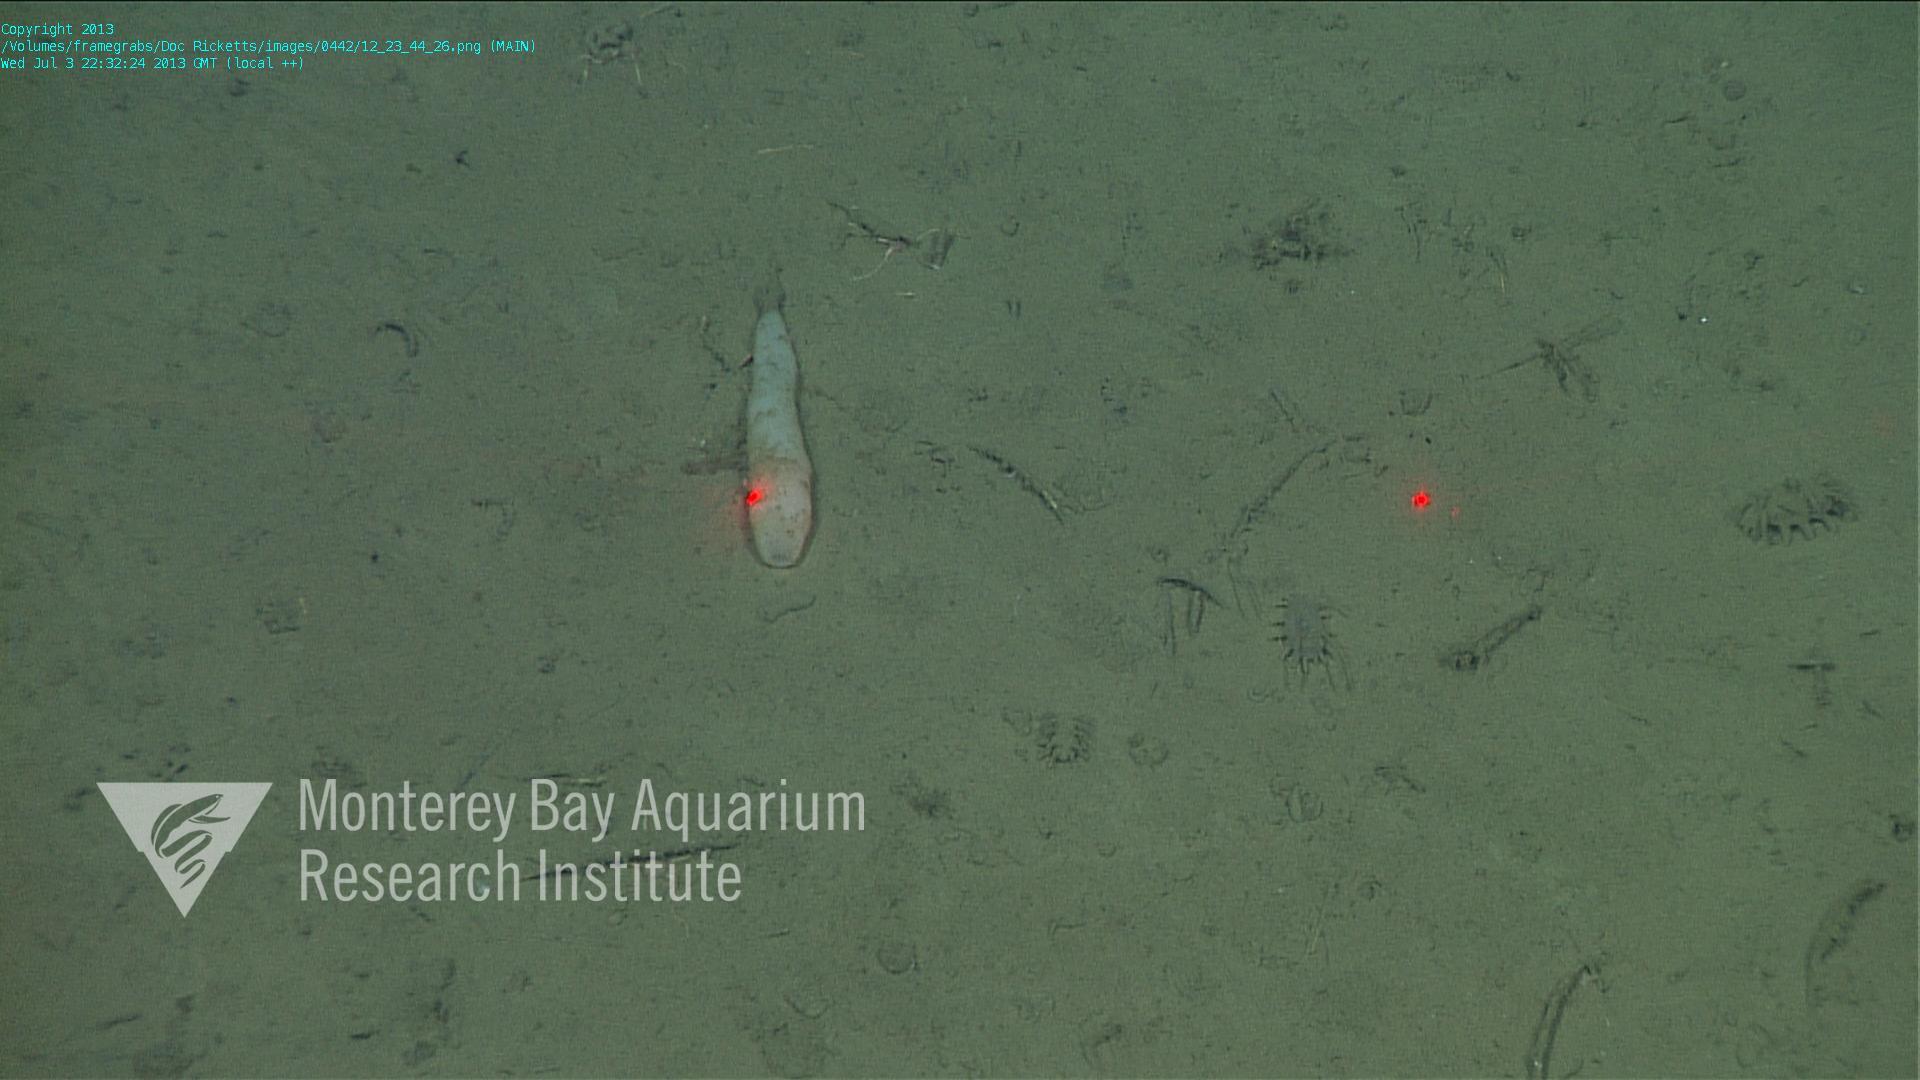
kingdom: Animalia
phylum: Porifera
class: Hexactinellida
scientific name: Hexactinellida
